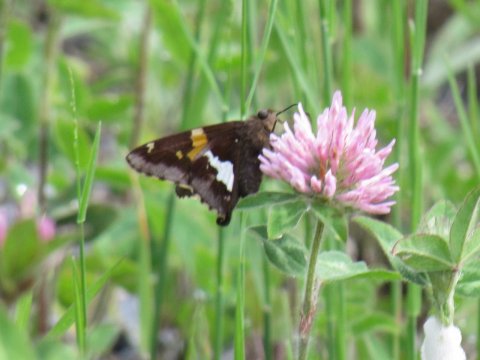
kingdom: Animalia
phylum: Arthropoda
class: Insecta
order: Lepidoptera
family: Hesperiidae
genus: Epargyreus
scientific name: Epargyreus clarus
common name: Silver-spotted Skipper
